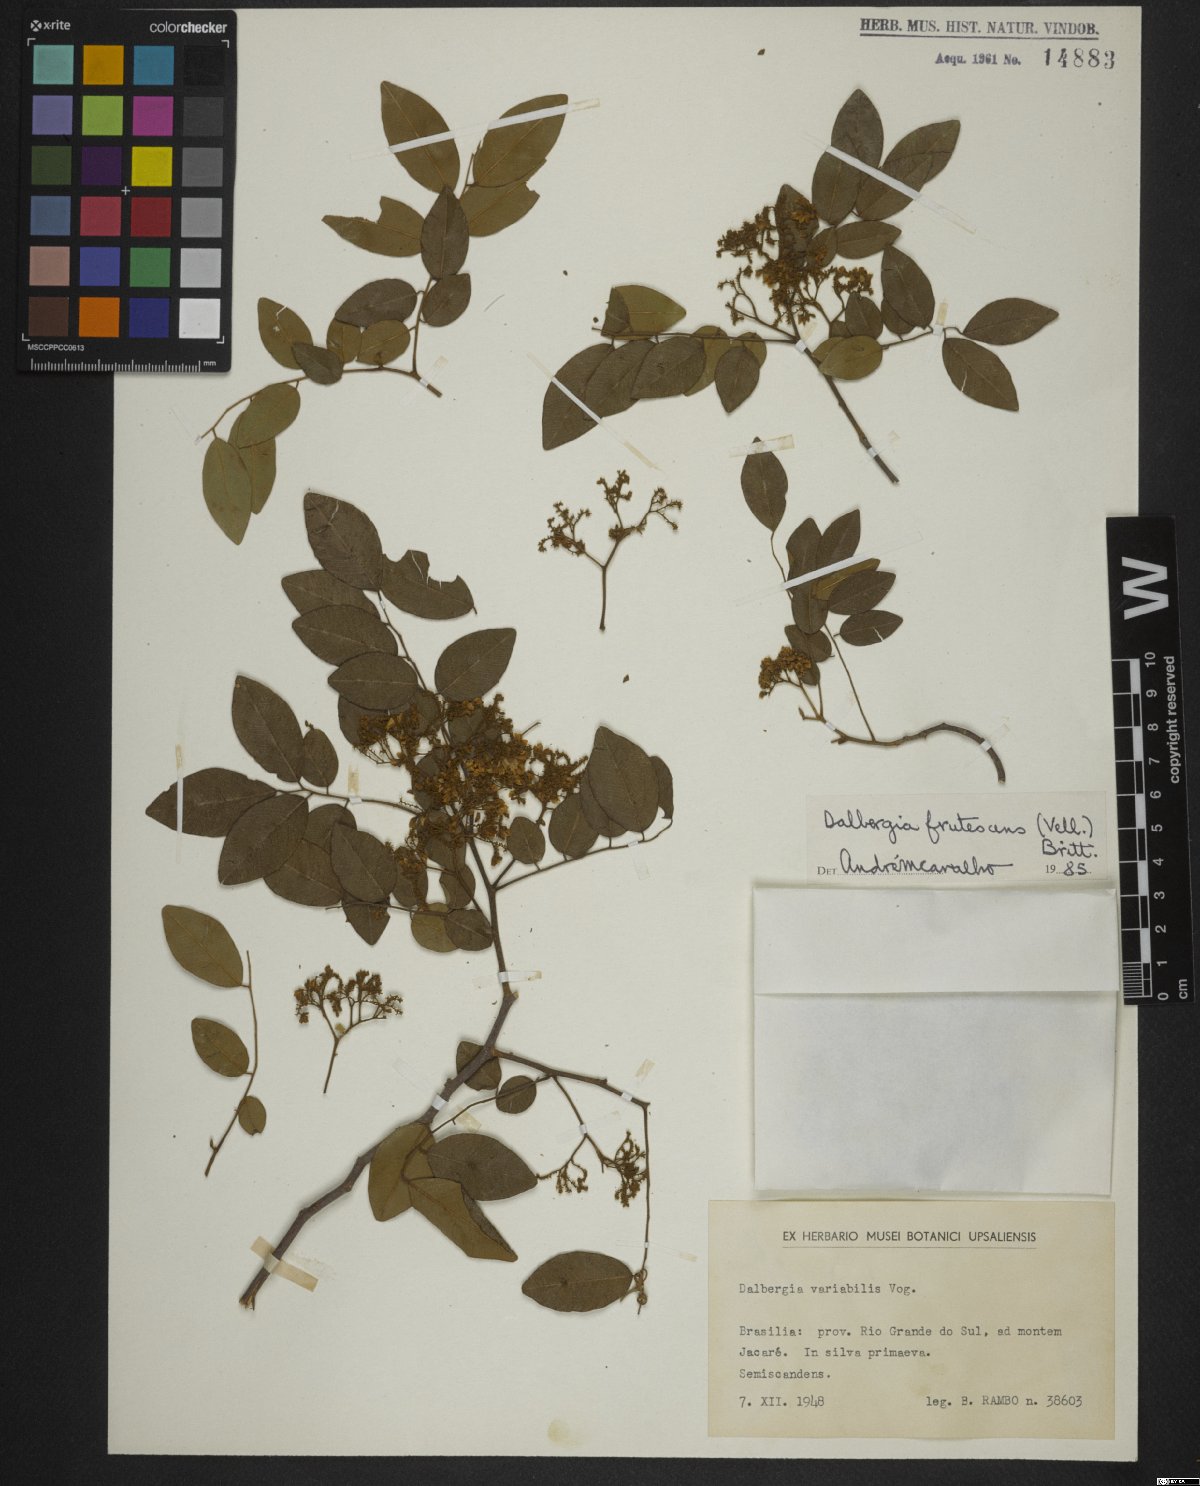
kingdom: Plantae
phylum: Tracheophyta
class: Magnoliopsida
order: Fabales
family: Fabaceae
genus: Dalbergia
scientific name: Dalbergia frutescens
